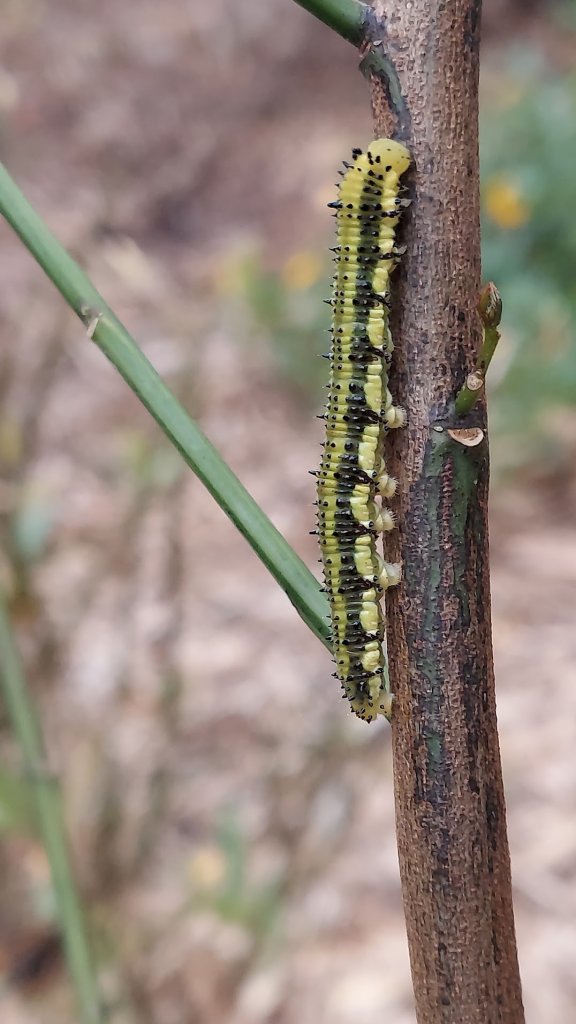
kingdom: Animalia
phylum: Arthropoda
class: Insecta
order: Lepidoptera
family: Pieridae
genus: Phoebis
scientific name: Phoebis sennae
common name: Cloudless Sulphur
